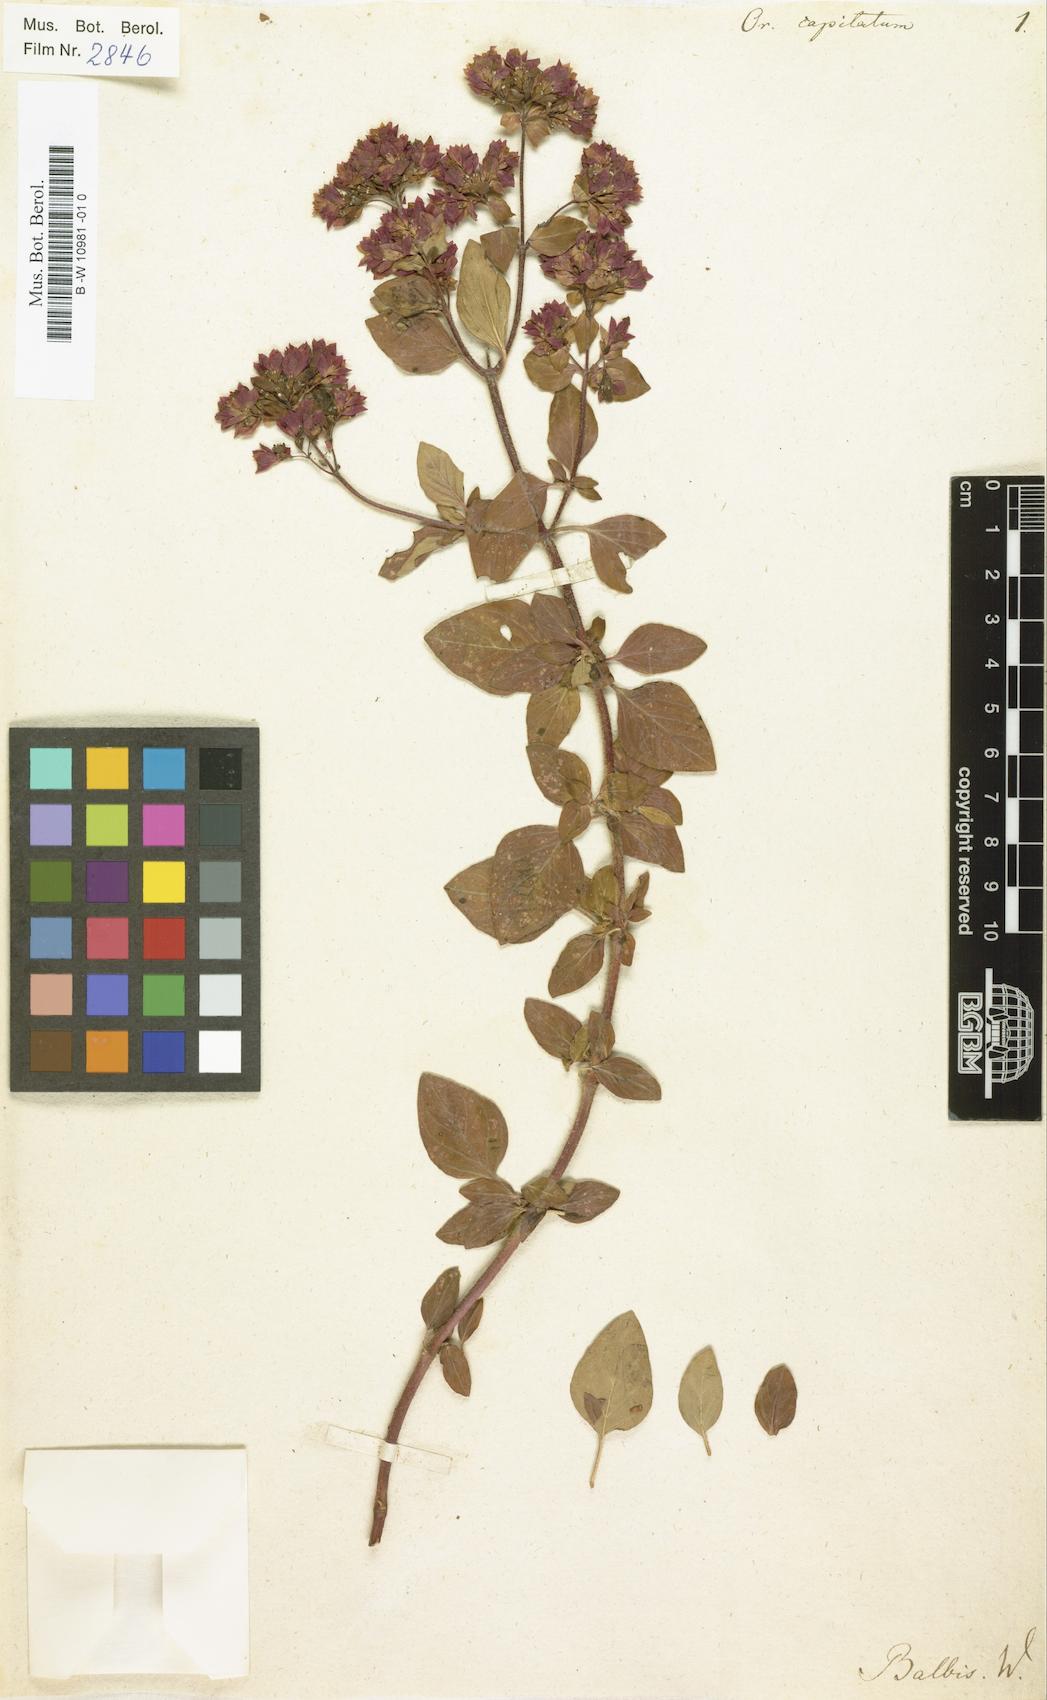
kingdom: Plantae
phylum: Tracheophyta
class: Magnoliopsida
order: Lamiales
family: Lamiaceae
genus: Origanum
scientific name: Origanum vulgare
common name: Wild marjoram
